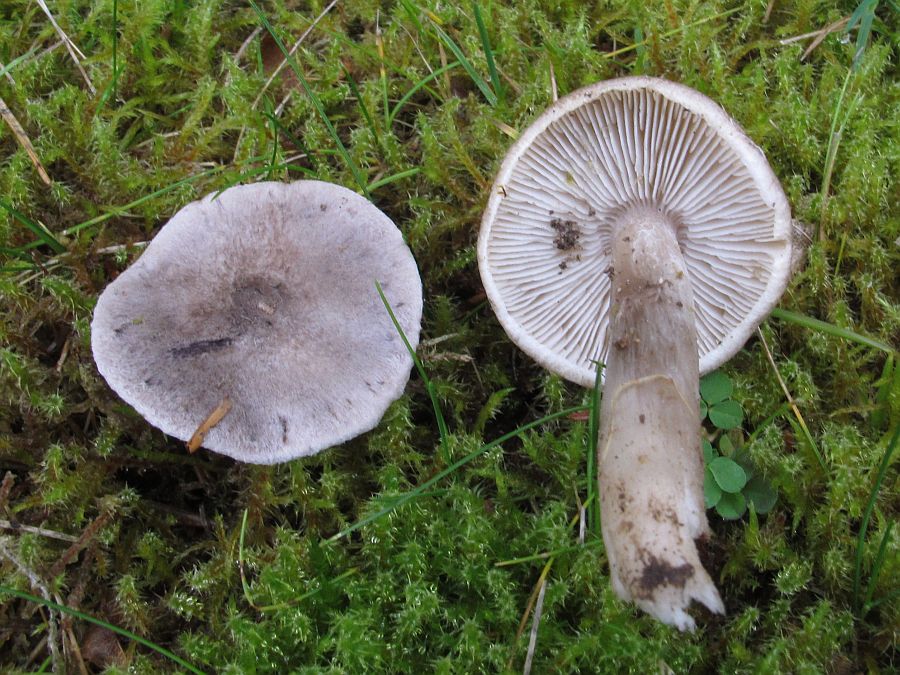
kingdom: Fungi
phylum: Basidiomycota
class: Agaricomycetes
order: Agaricales
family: Tricholomataceae
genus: Tricholoma
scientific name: Tricholoma argyraceum
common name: slør-ridderhat
